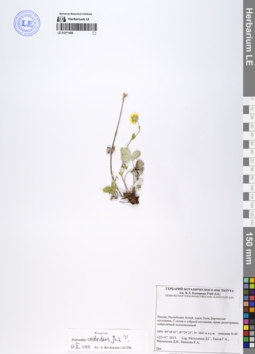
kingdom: Plantae
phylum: Tracheophyta
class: Magnoliopsida
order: Rosales
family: Rosaceae
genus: Potentilla
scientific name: Potentilla crebridens
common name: Congested cinquefoil
